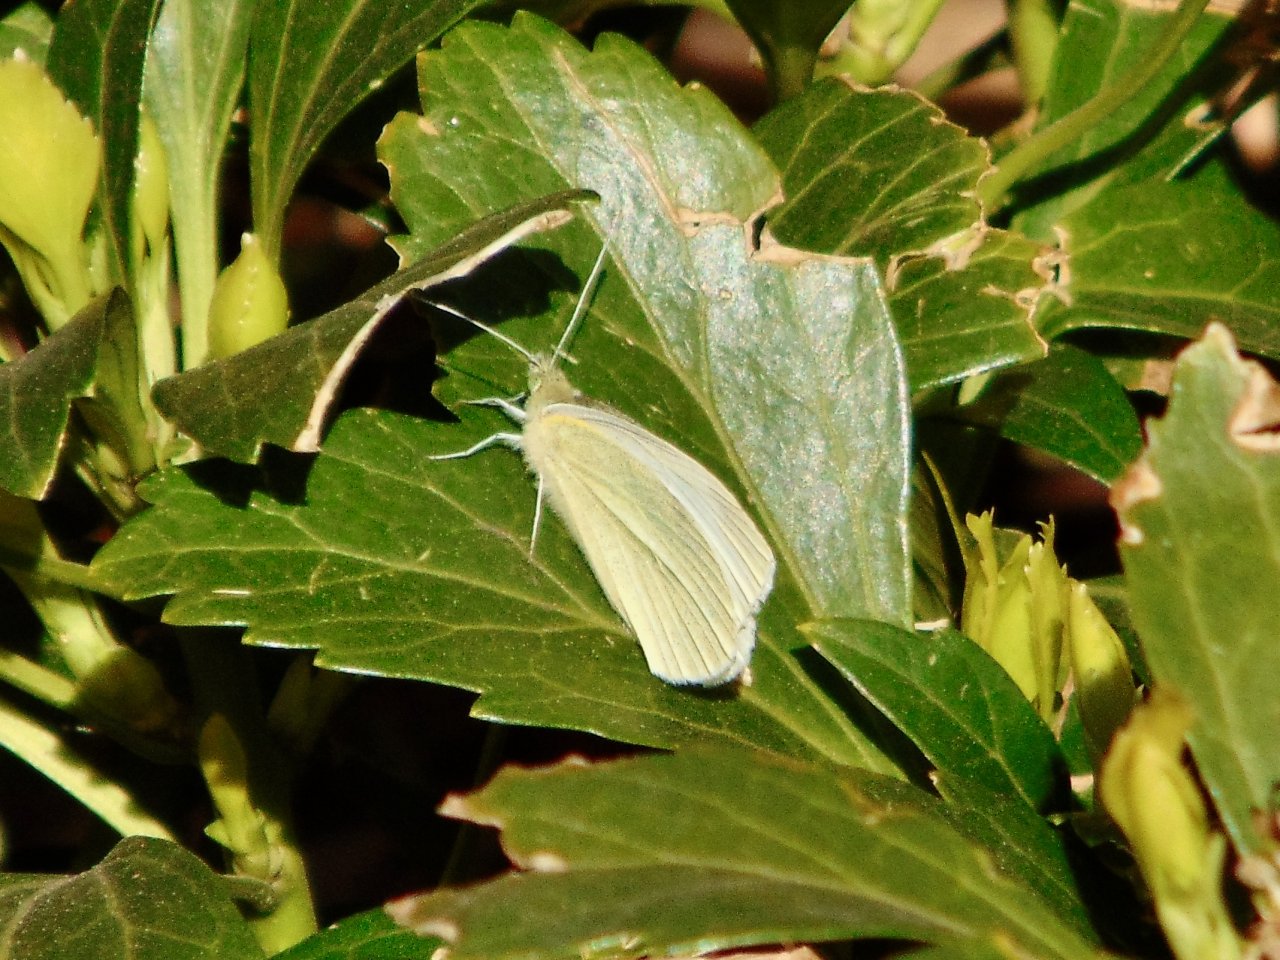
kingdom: Animalia
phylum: Arthropoda
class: Insecta
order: Lepidoptera
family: Pieridae
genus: Pieris
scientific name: Pieris rapae
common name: Cabbage White
